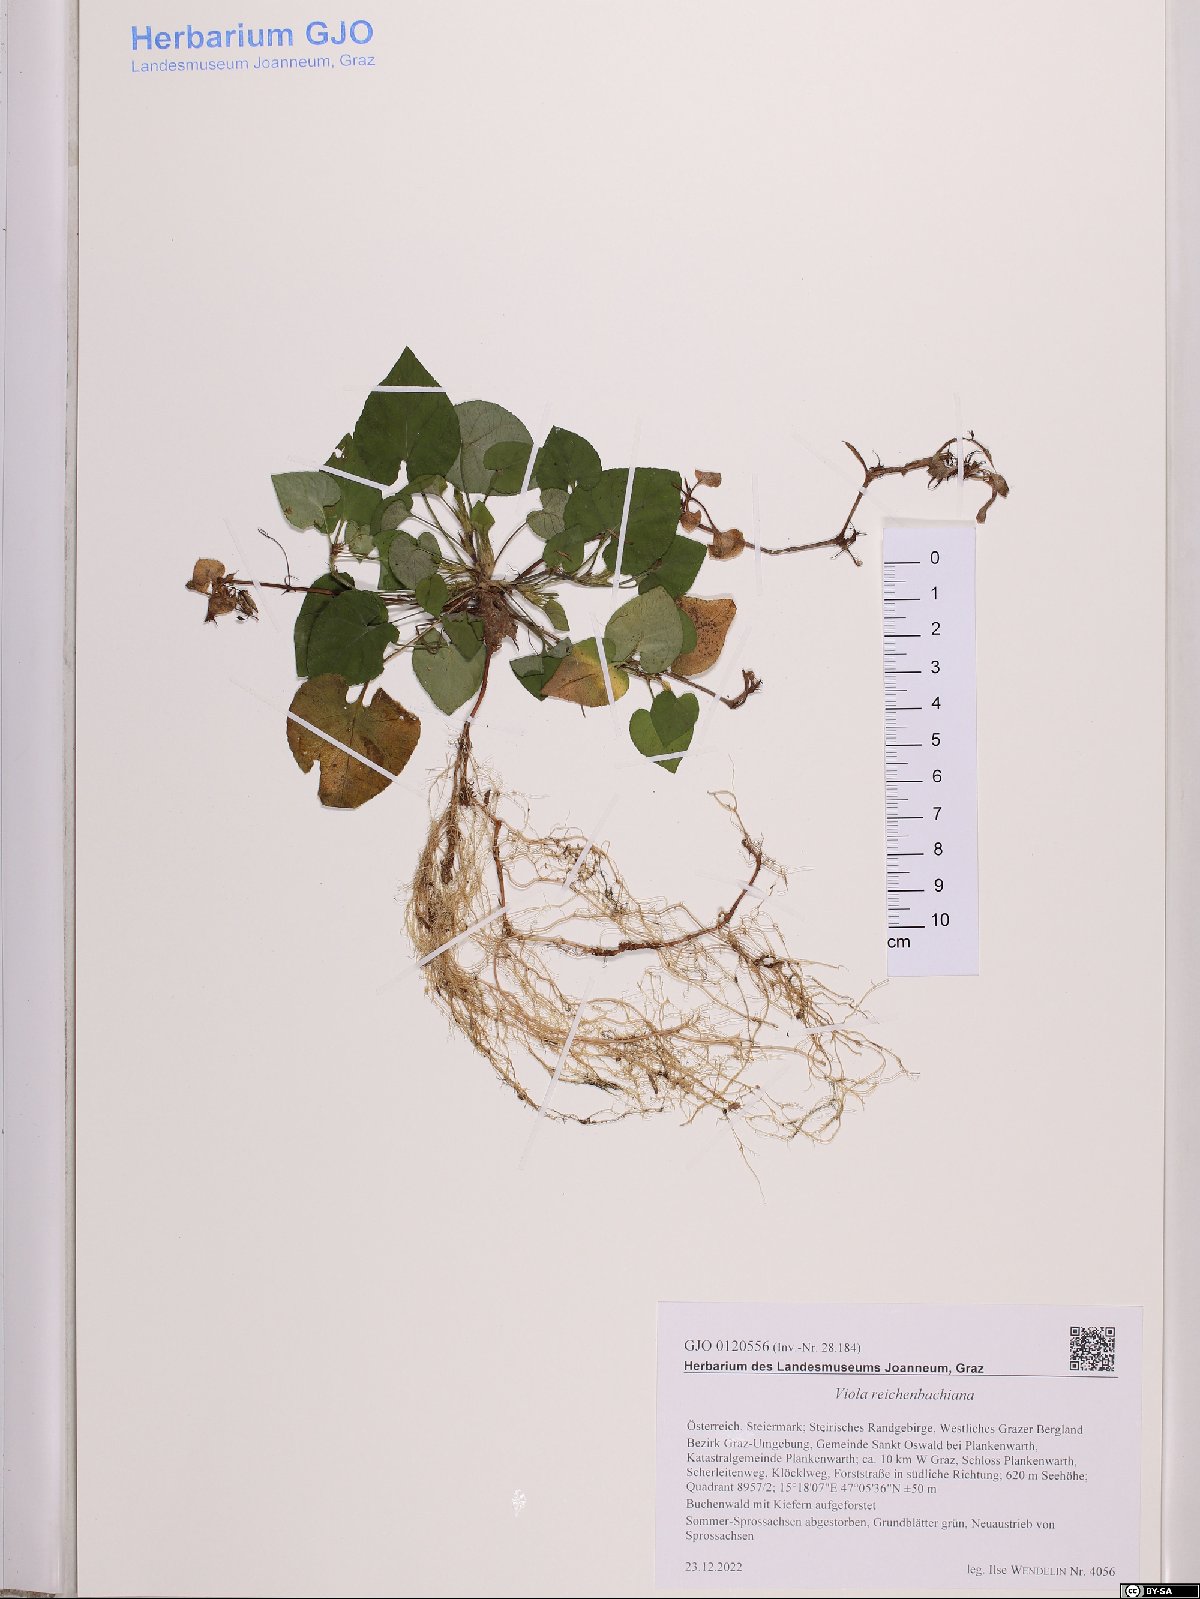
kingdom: Plantae
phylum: Tracheophyta
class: Magnoliopsida
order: Malpighiales
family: Violaceae
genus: Viola
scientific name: Viola reichenbachiana
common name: Early dog-violet
